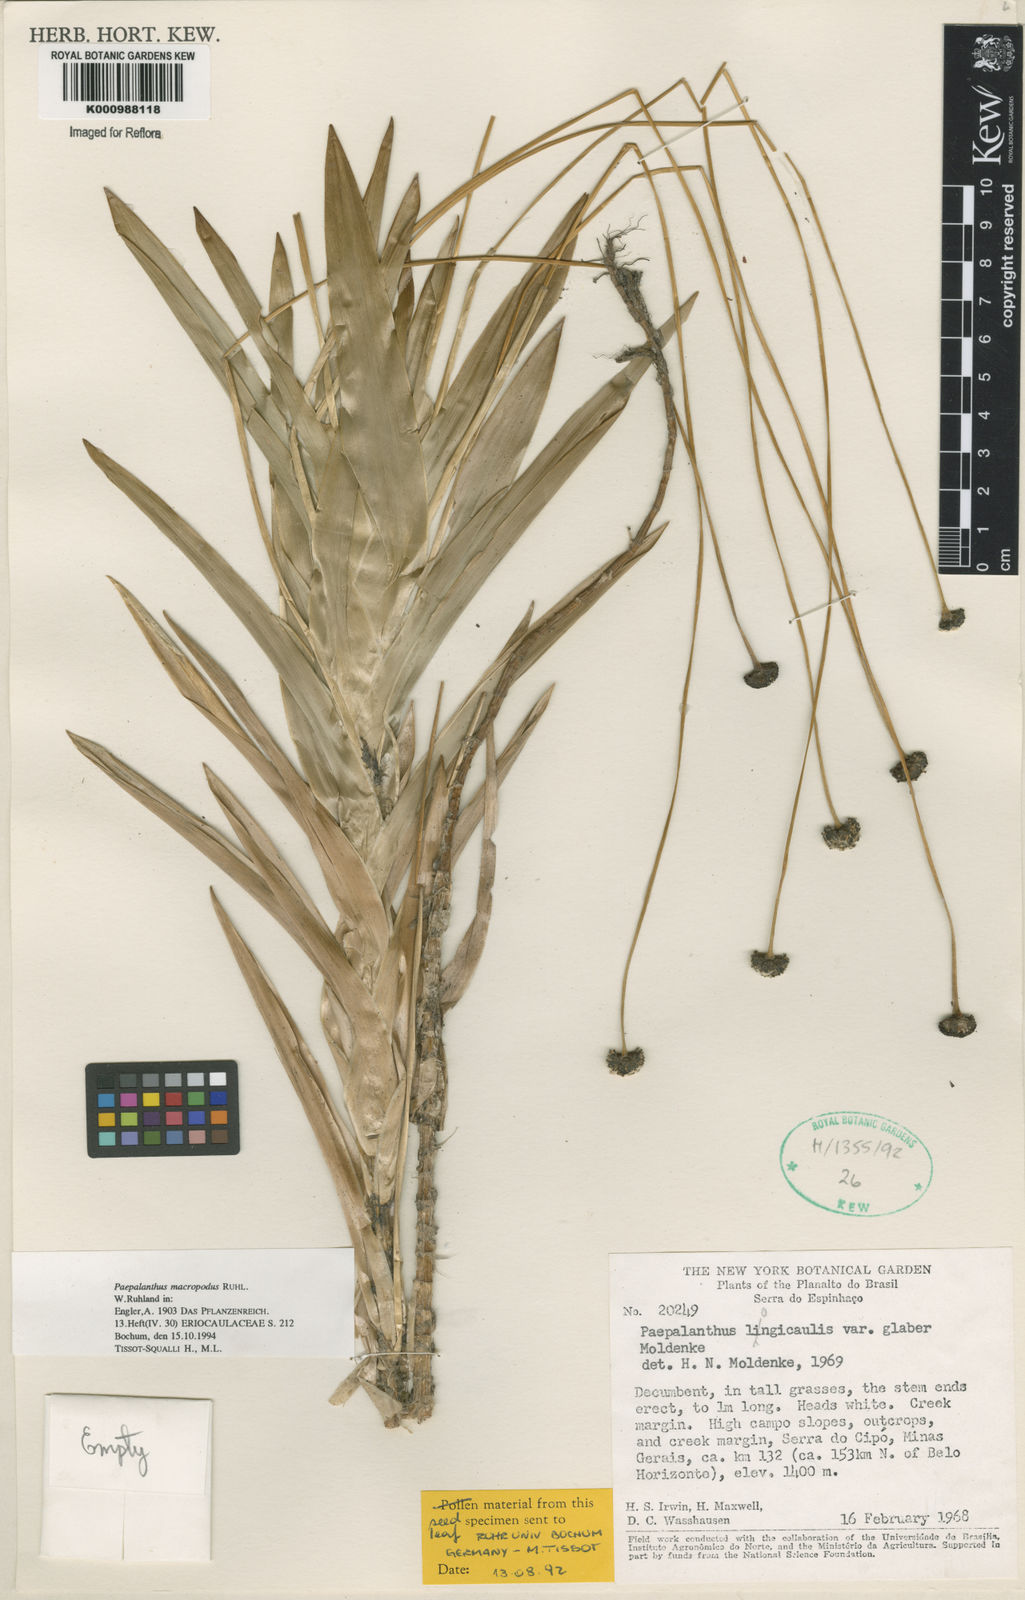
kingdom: Plantae
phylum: Tracheophyta
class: Liliopsida
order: Poales
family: Eriocaulaceae
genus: Paepalanthus
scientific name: Paepalanthus macropodus
